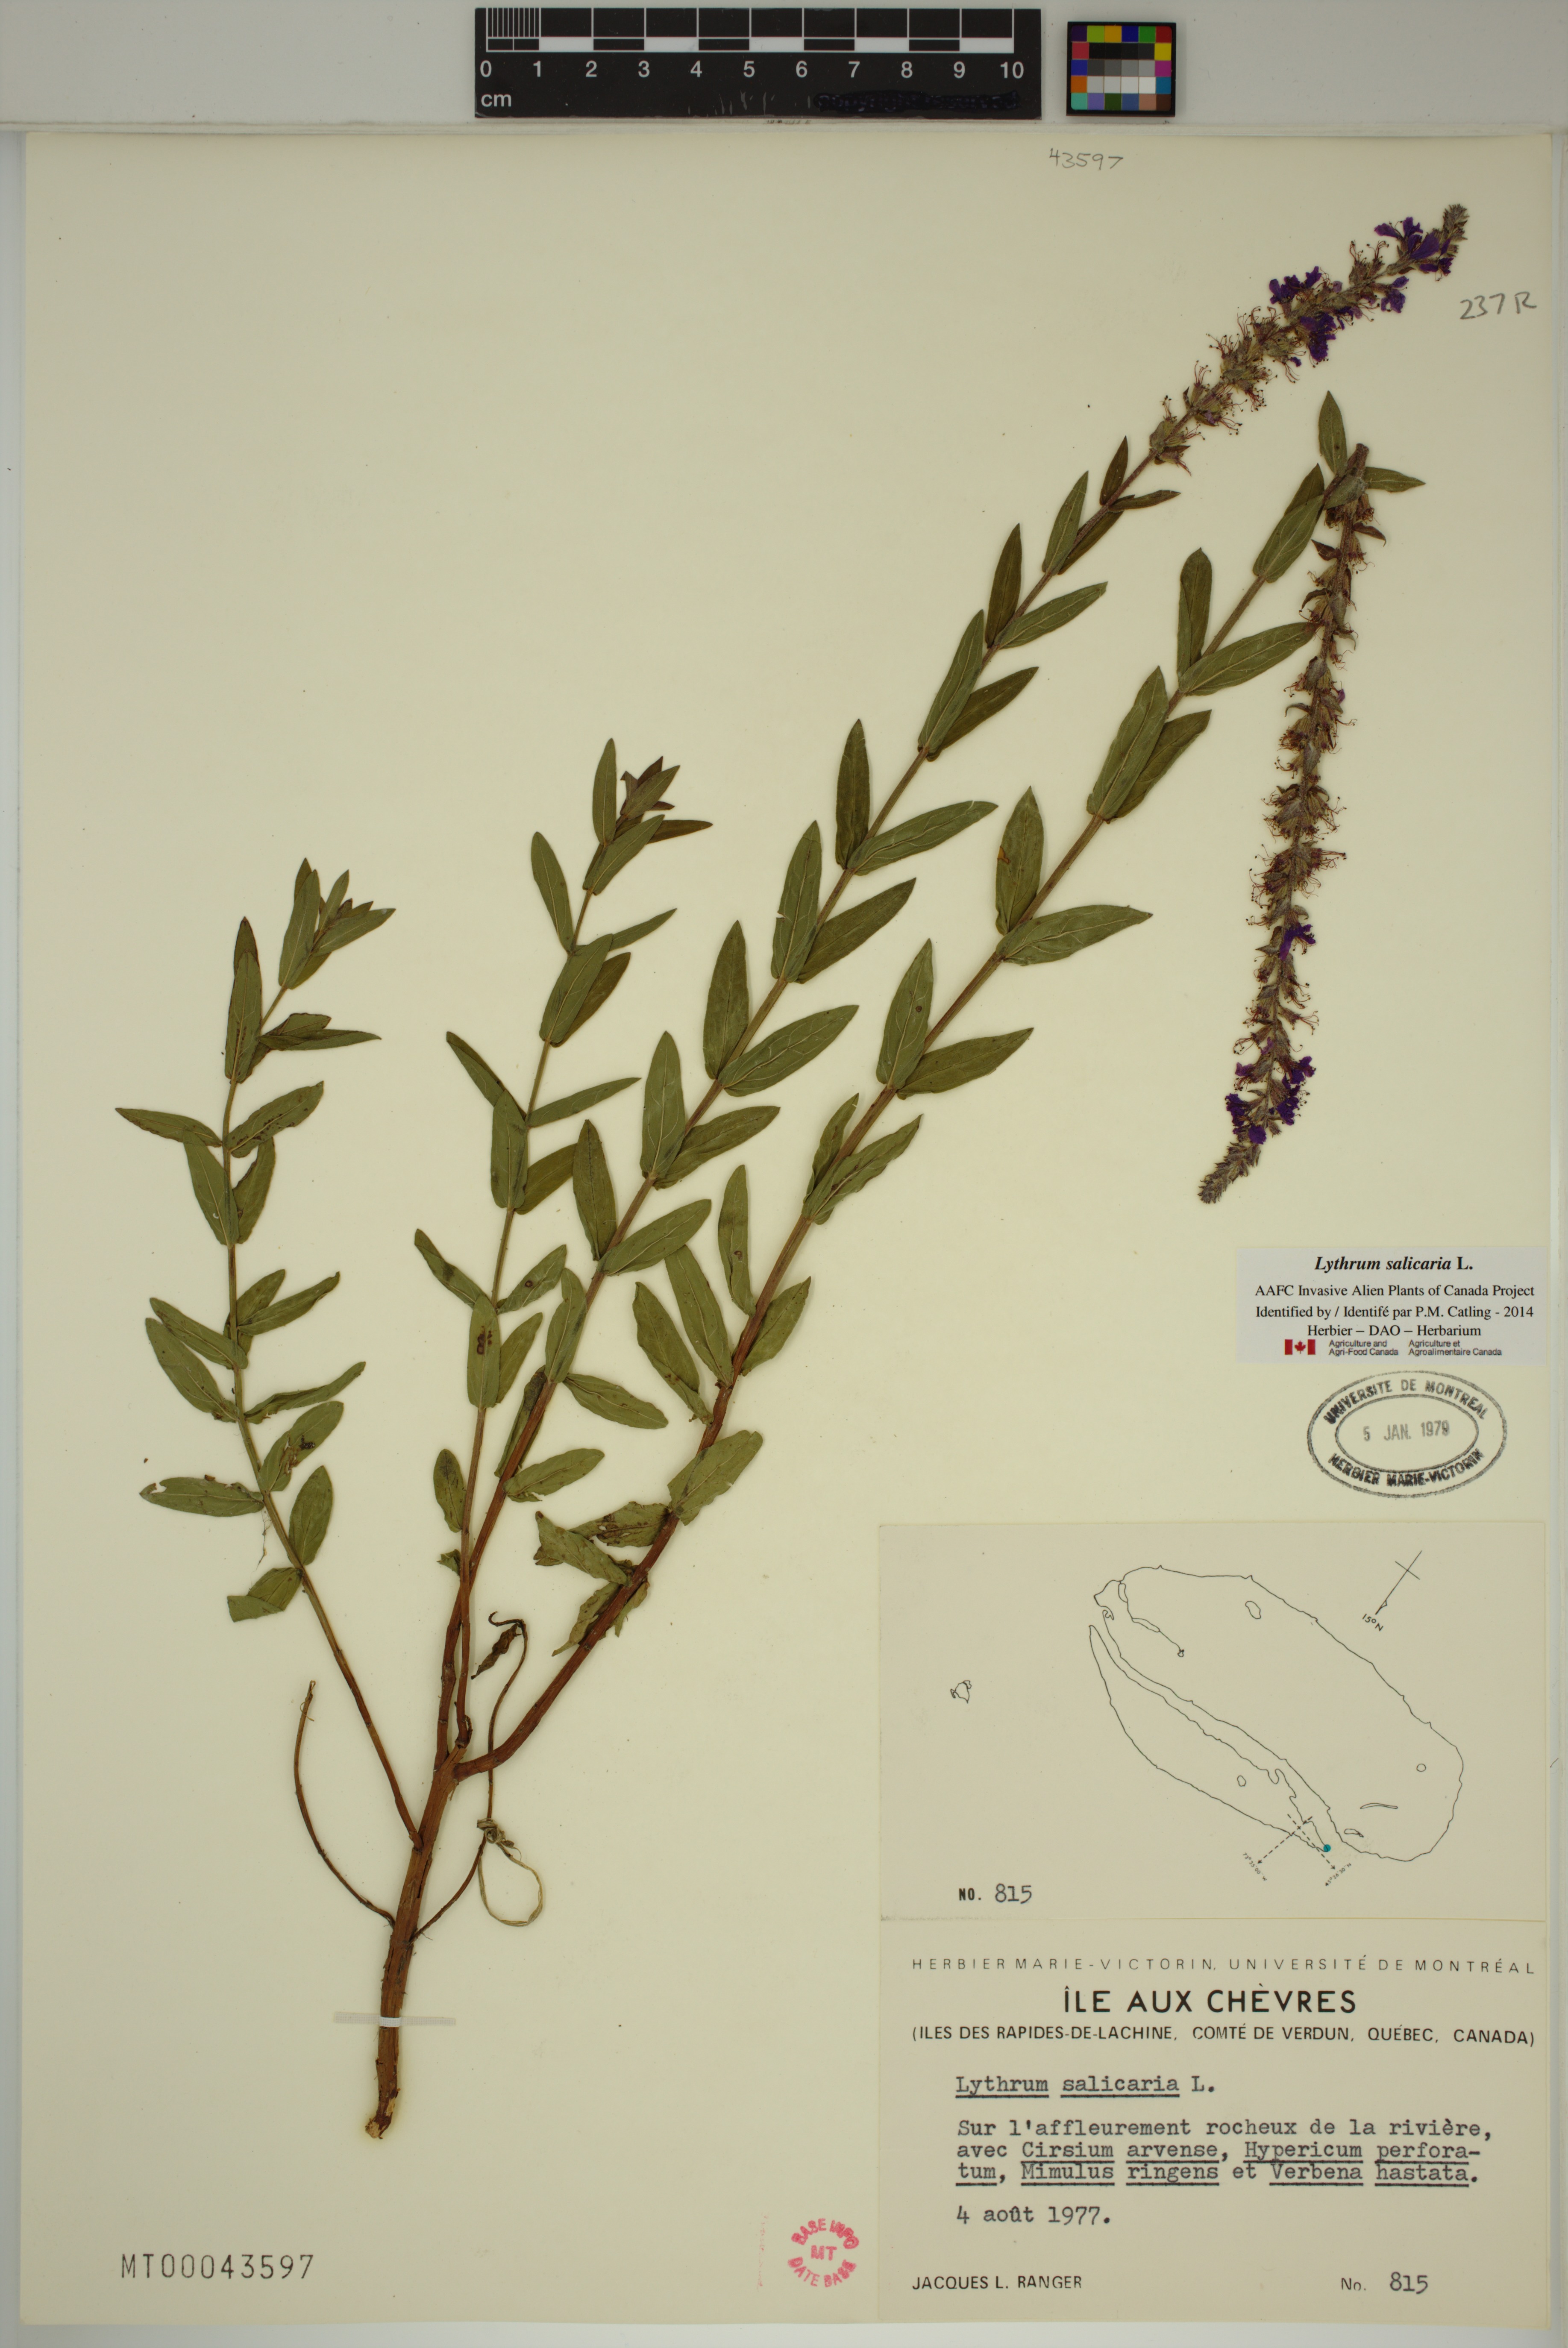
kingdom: Plantae
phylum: Tracheophyta
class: Magnoliopsida
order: Myrtales
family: Lythraceae
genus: Lythrum
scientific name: Lythrum salicaria
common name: Purple loosestrife
